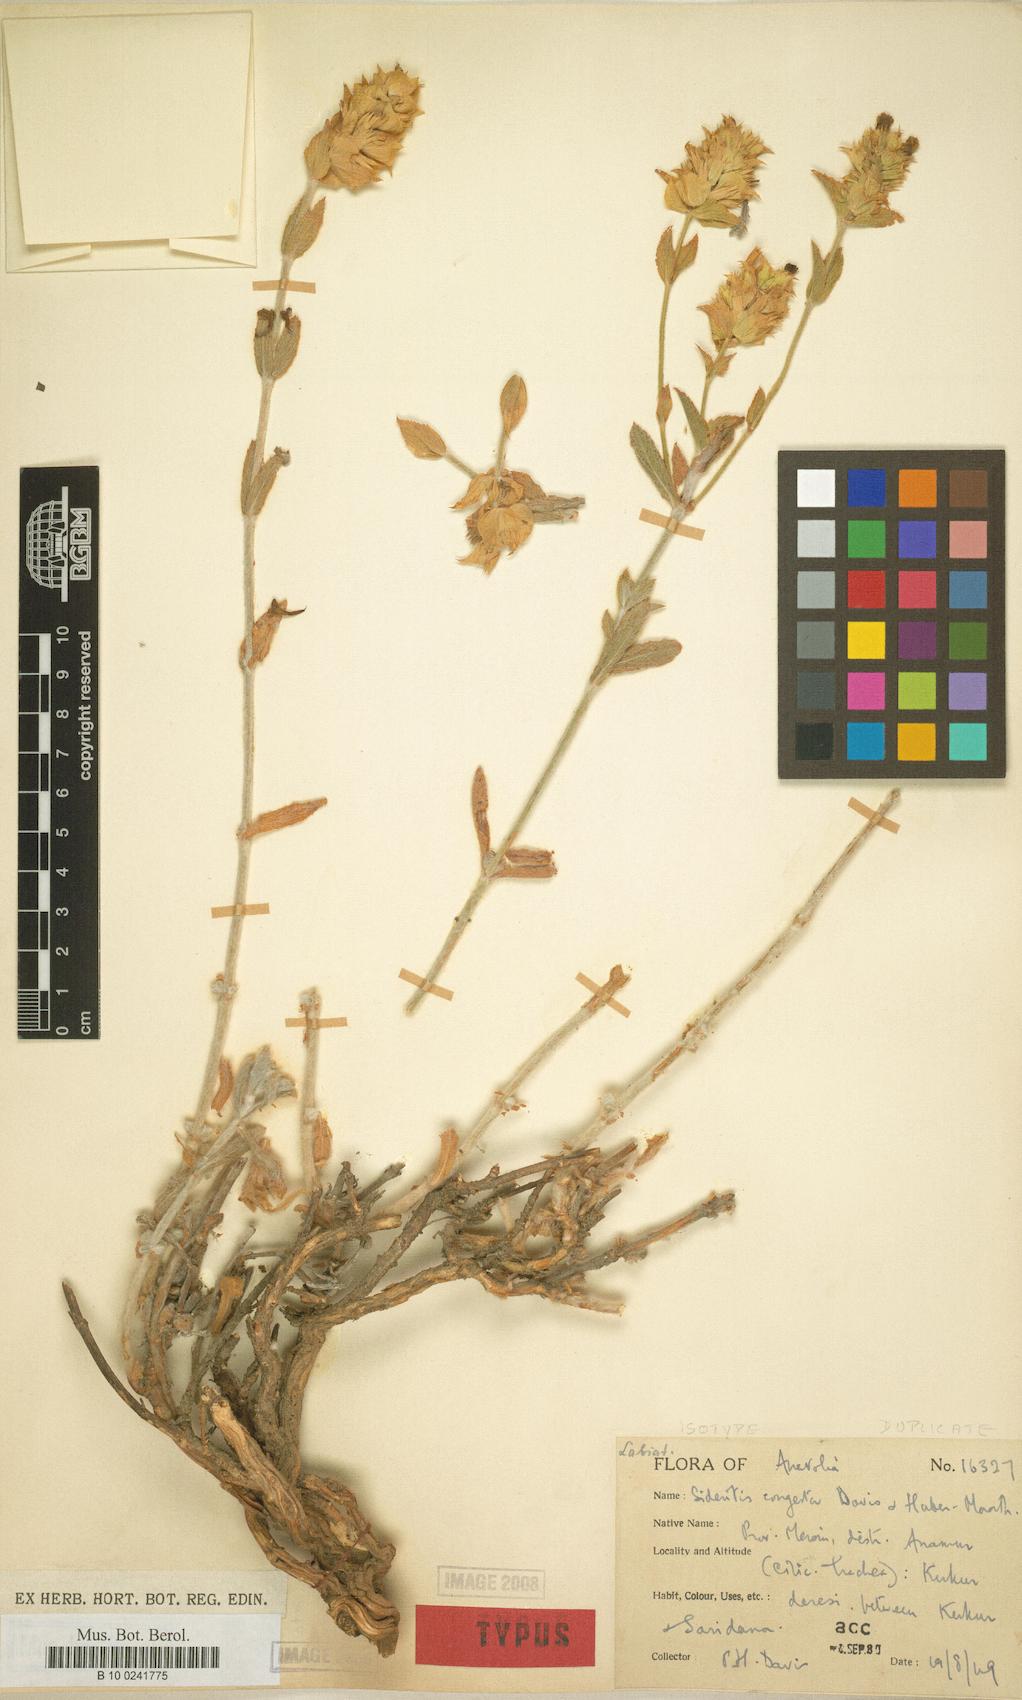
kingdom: Plantae
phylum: Tracheophyta
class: Magnoliopsida
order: Lamiales
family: Lamiaceae
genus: Sideritis
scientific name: Sideritis congesta
